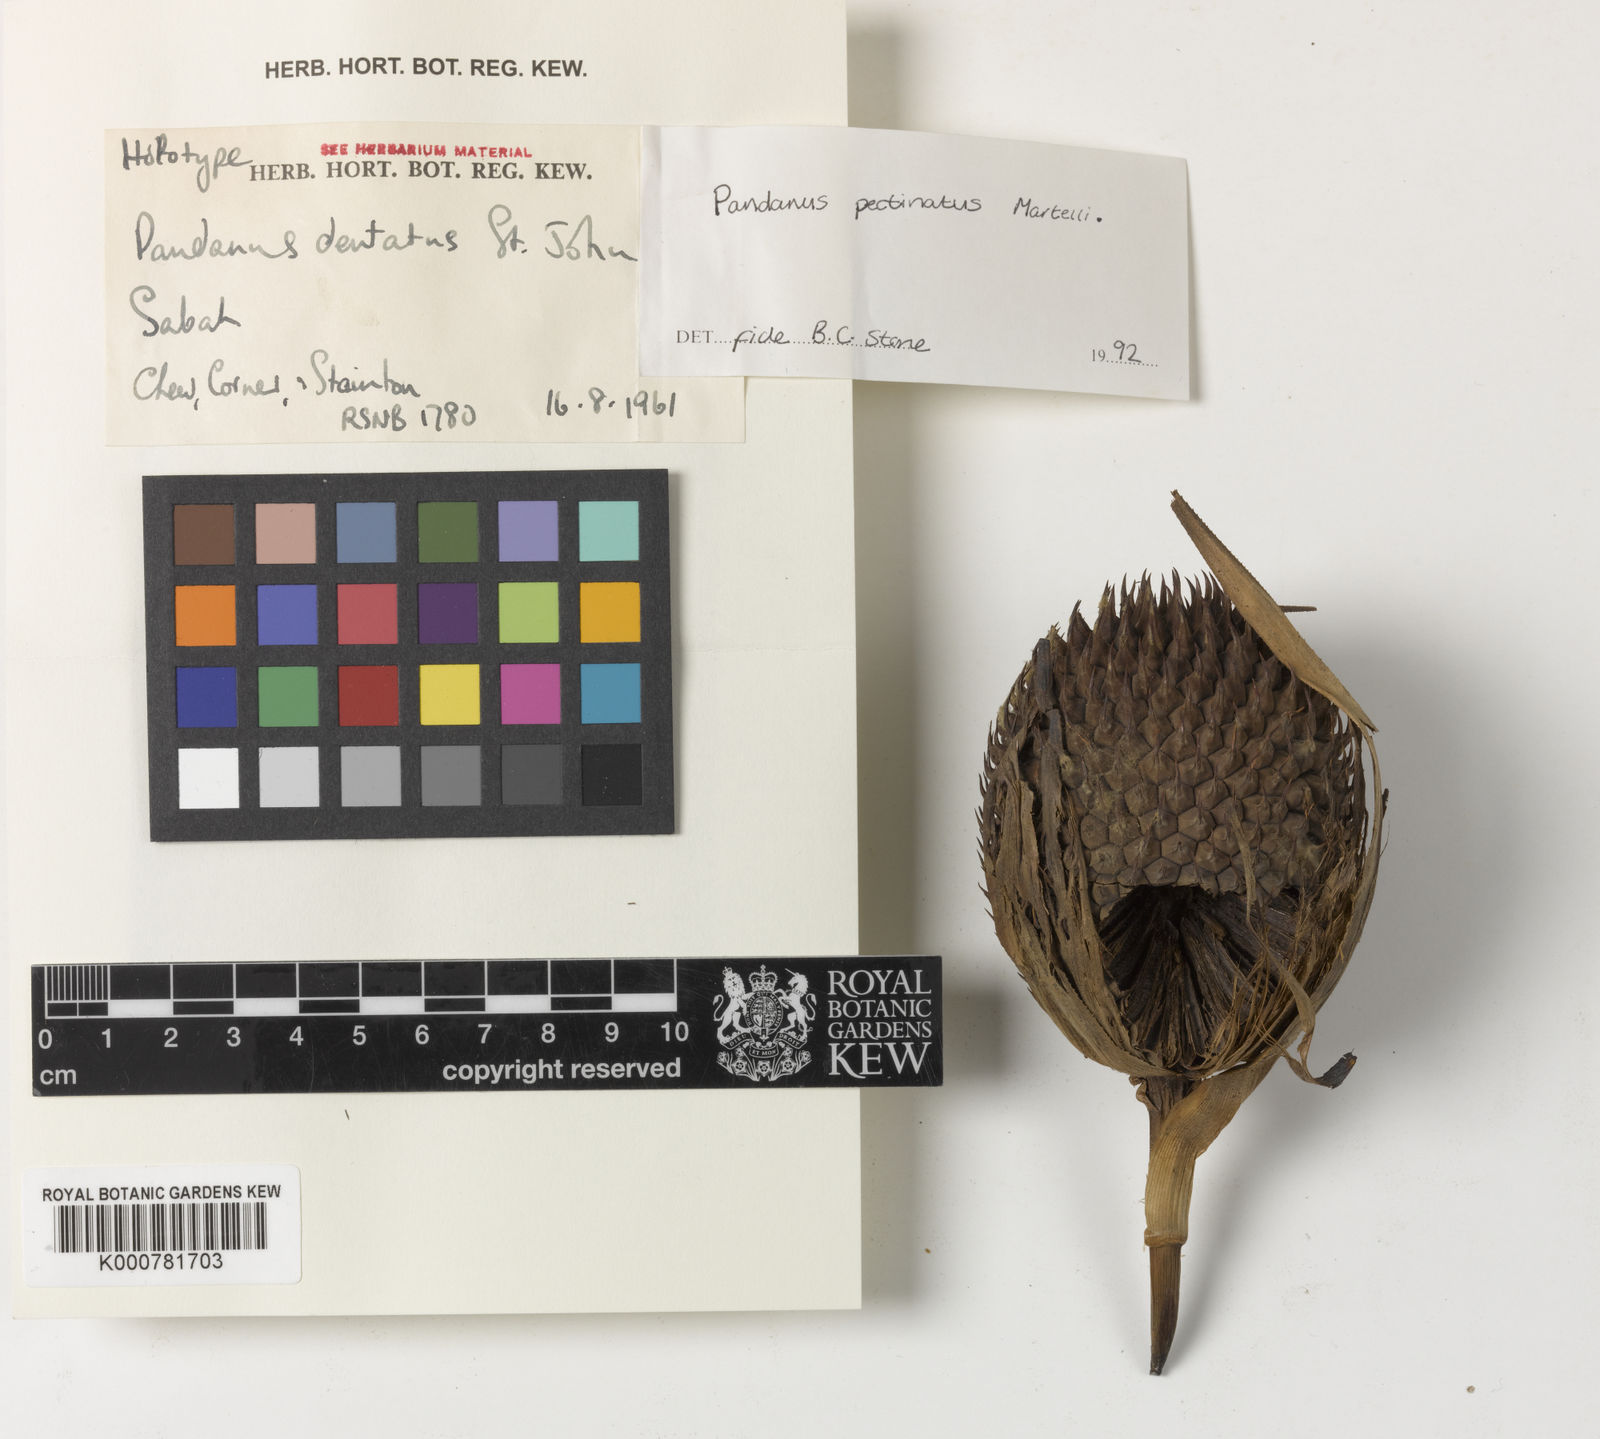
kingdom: Plantae
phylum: Tracheophyta
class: Liliopsida
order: Pandanales
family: Pandanaceae
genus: Benstonea
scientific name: Benstonea pectinata
